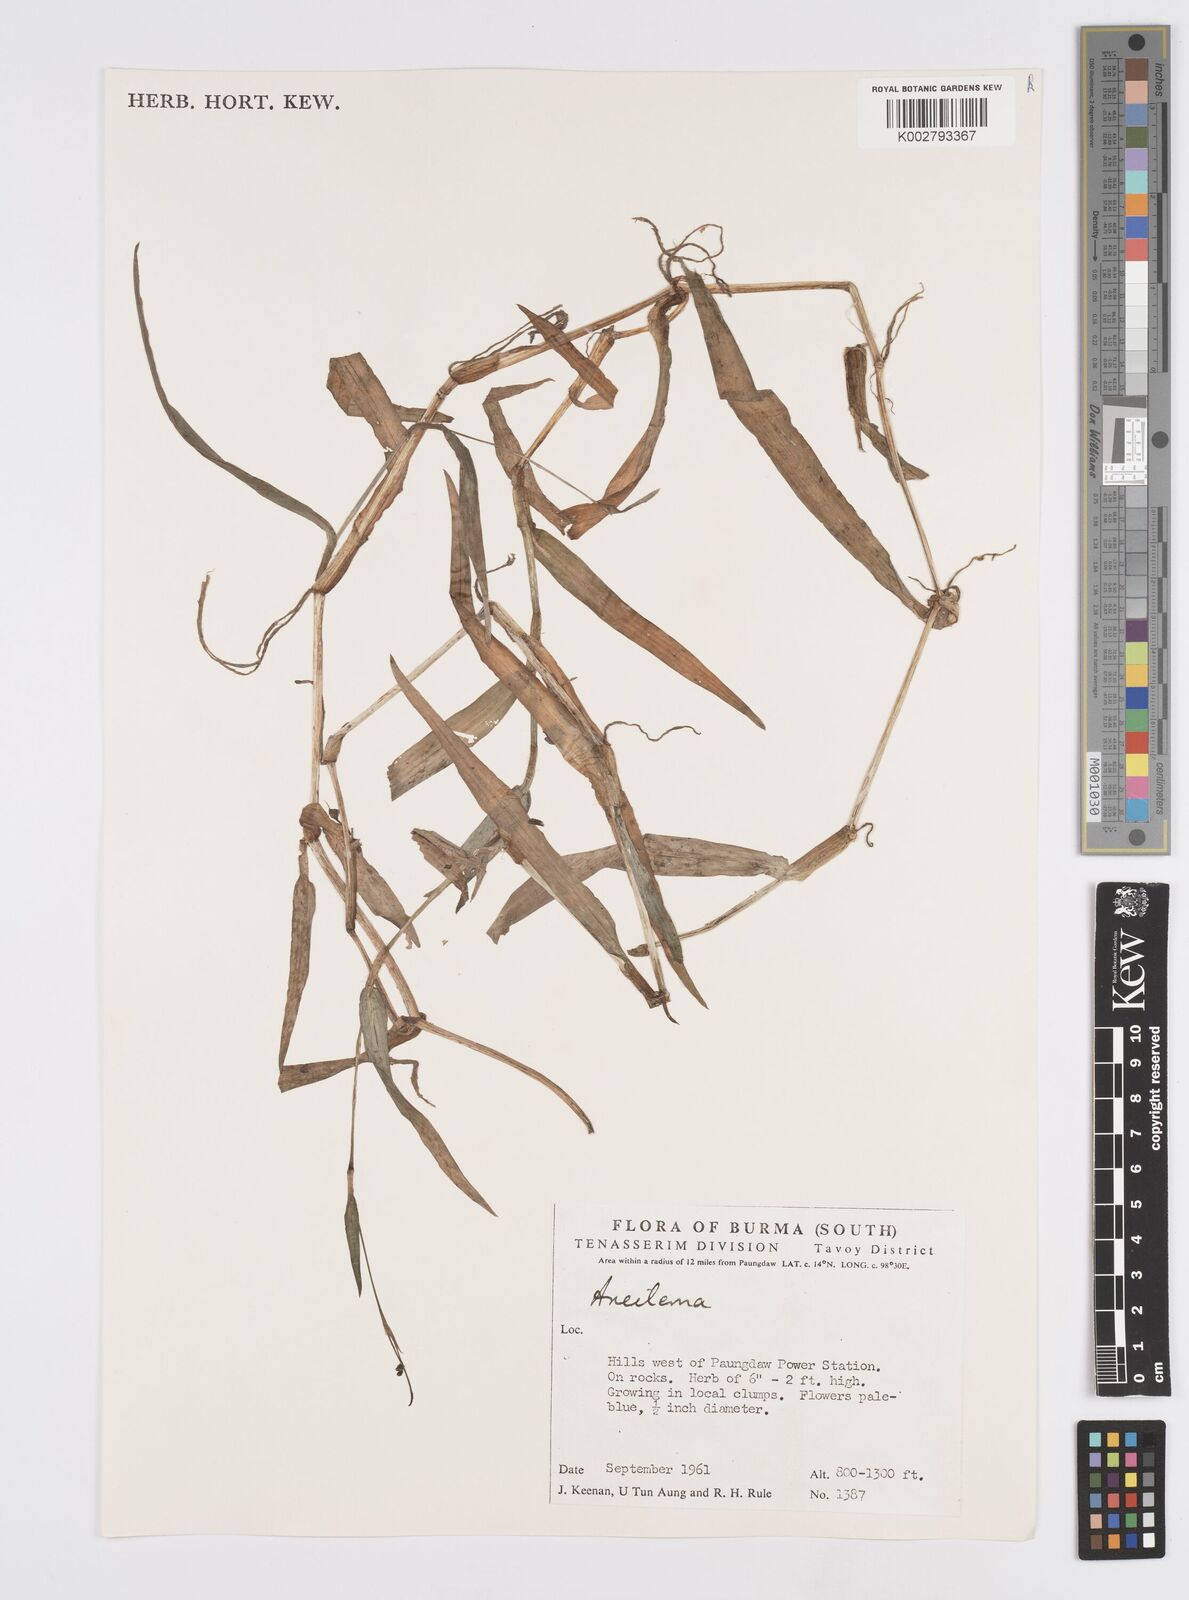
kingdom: Plantae
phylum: Tracheophyta
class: Liliopsida
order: Commelinales
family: Commelinaceae
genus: Murdannia
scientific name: Murdannia
